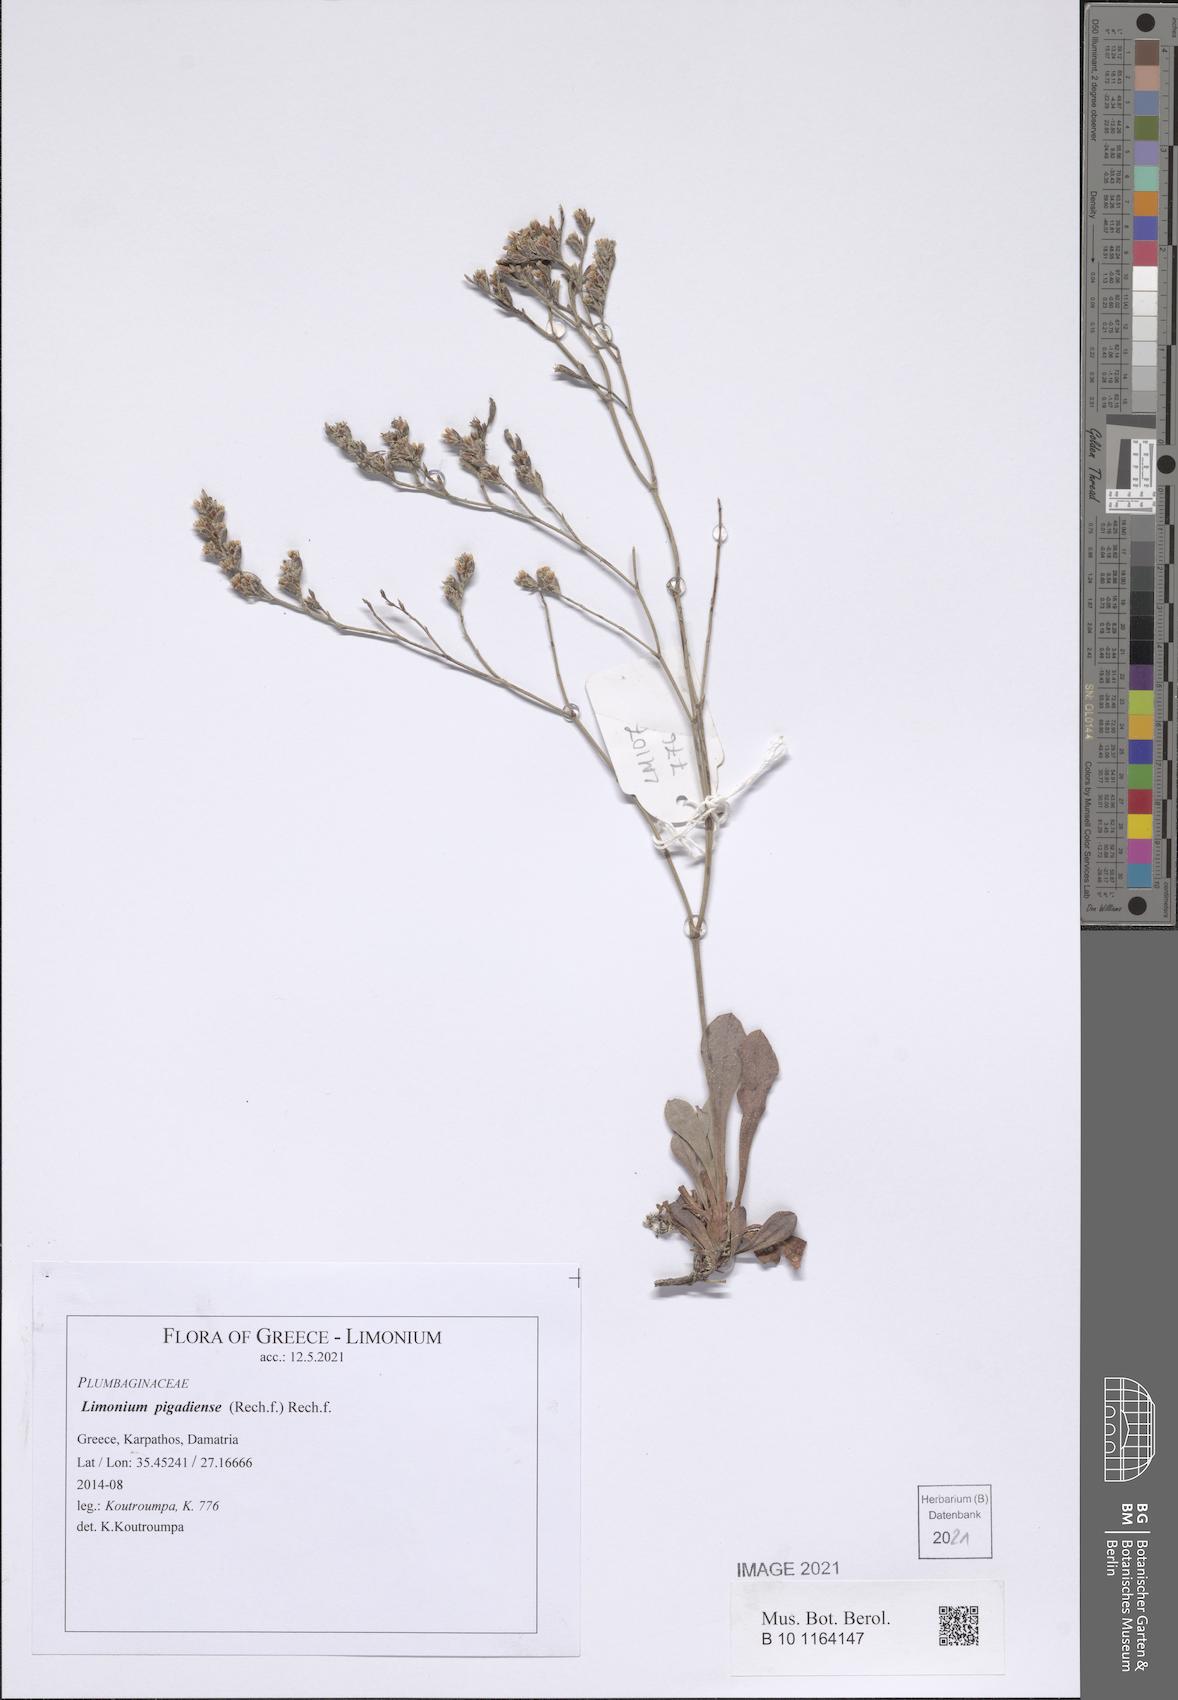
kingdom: Plantae
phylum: Tracheophyta
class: Magnoliopsida
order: Caryophyllales
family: Plumbaginaceae
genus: Limonium
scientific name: Limonium pigadiense
